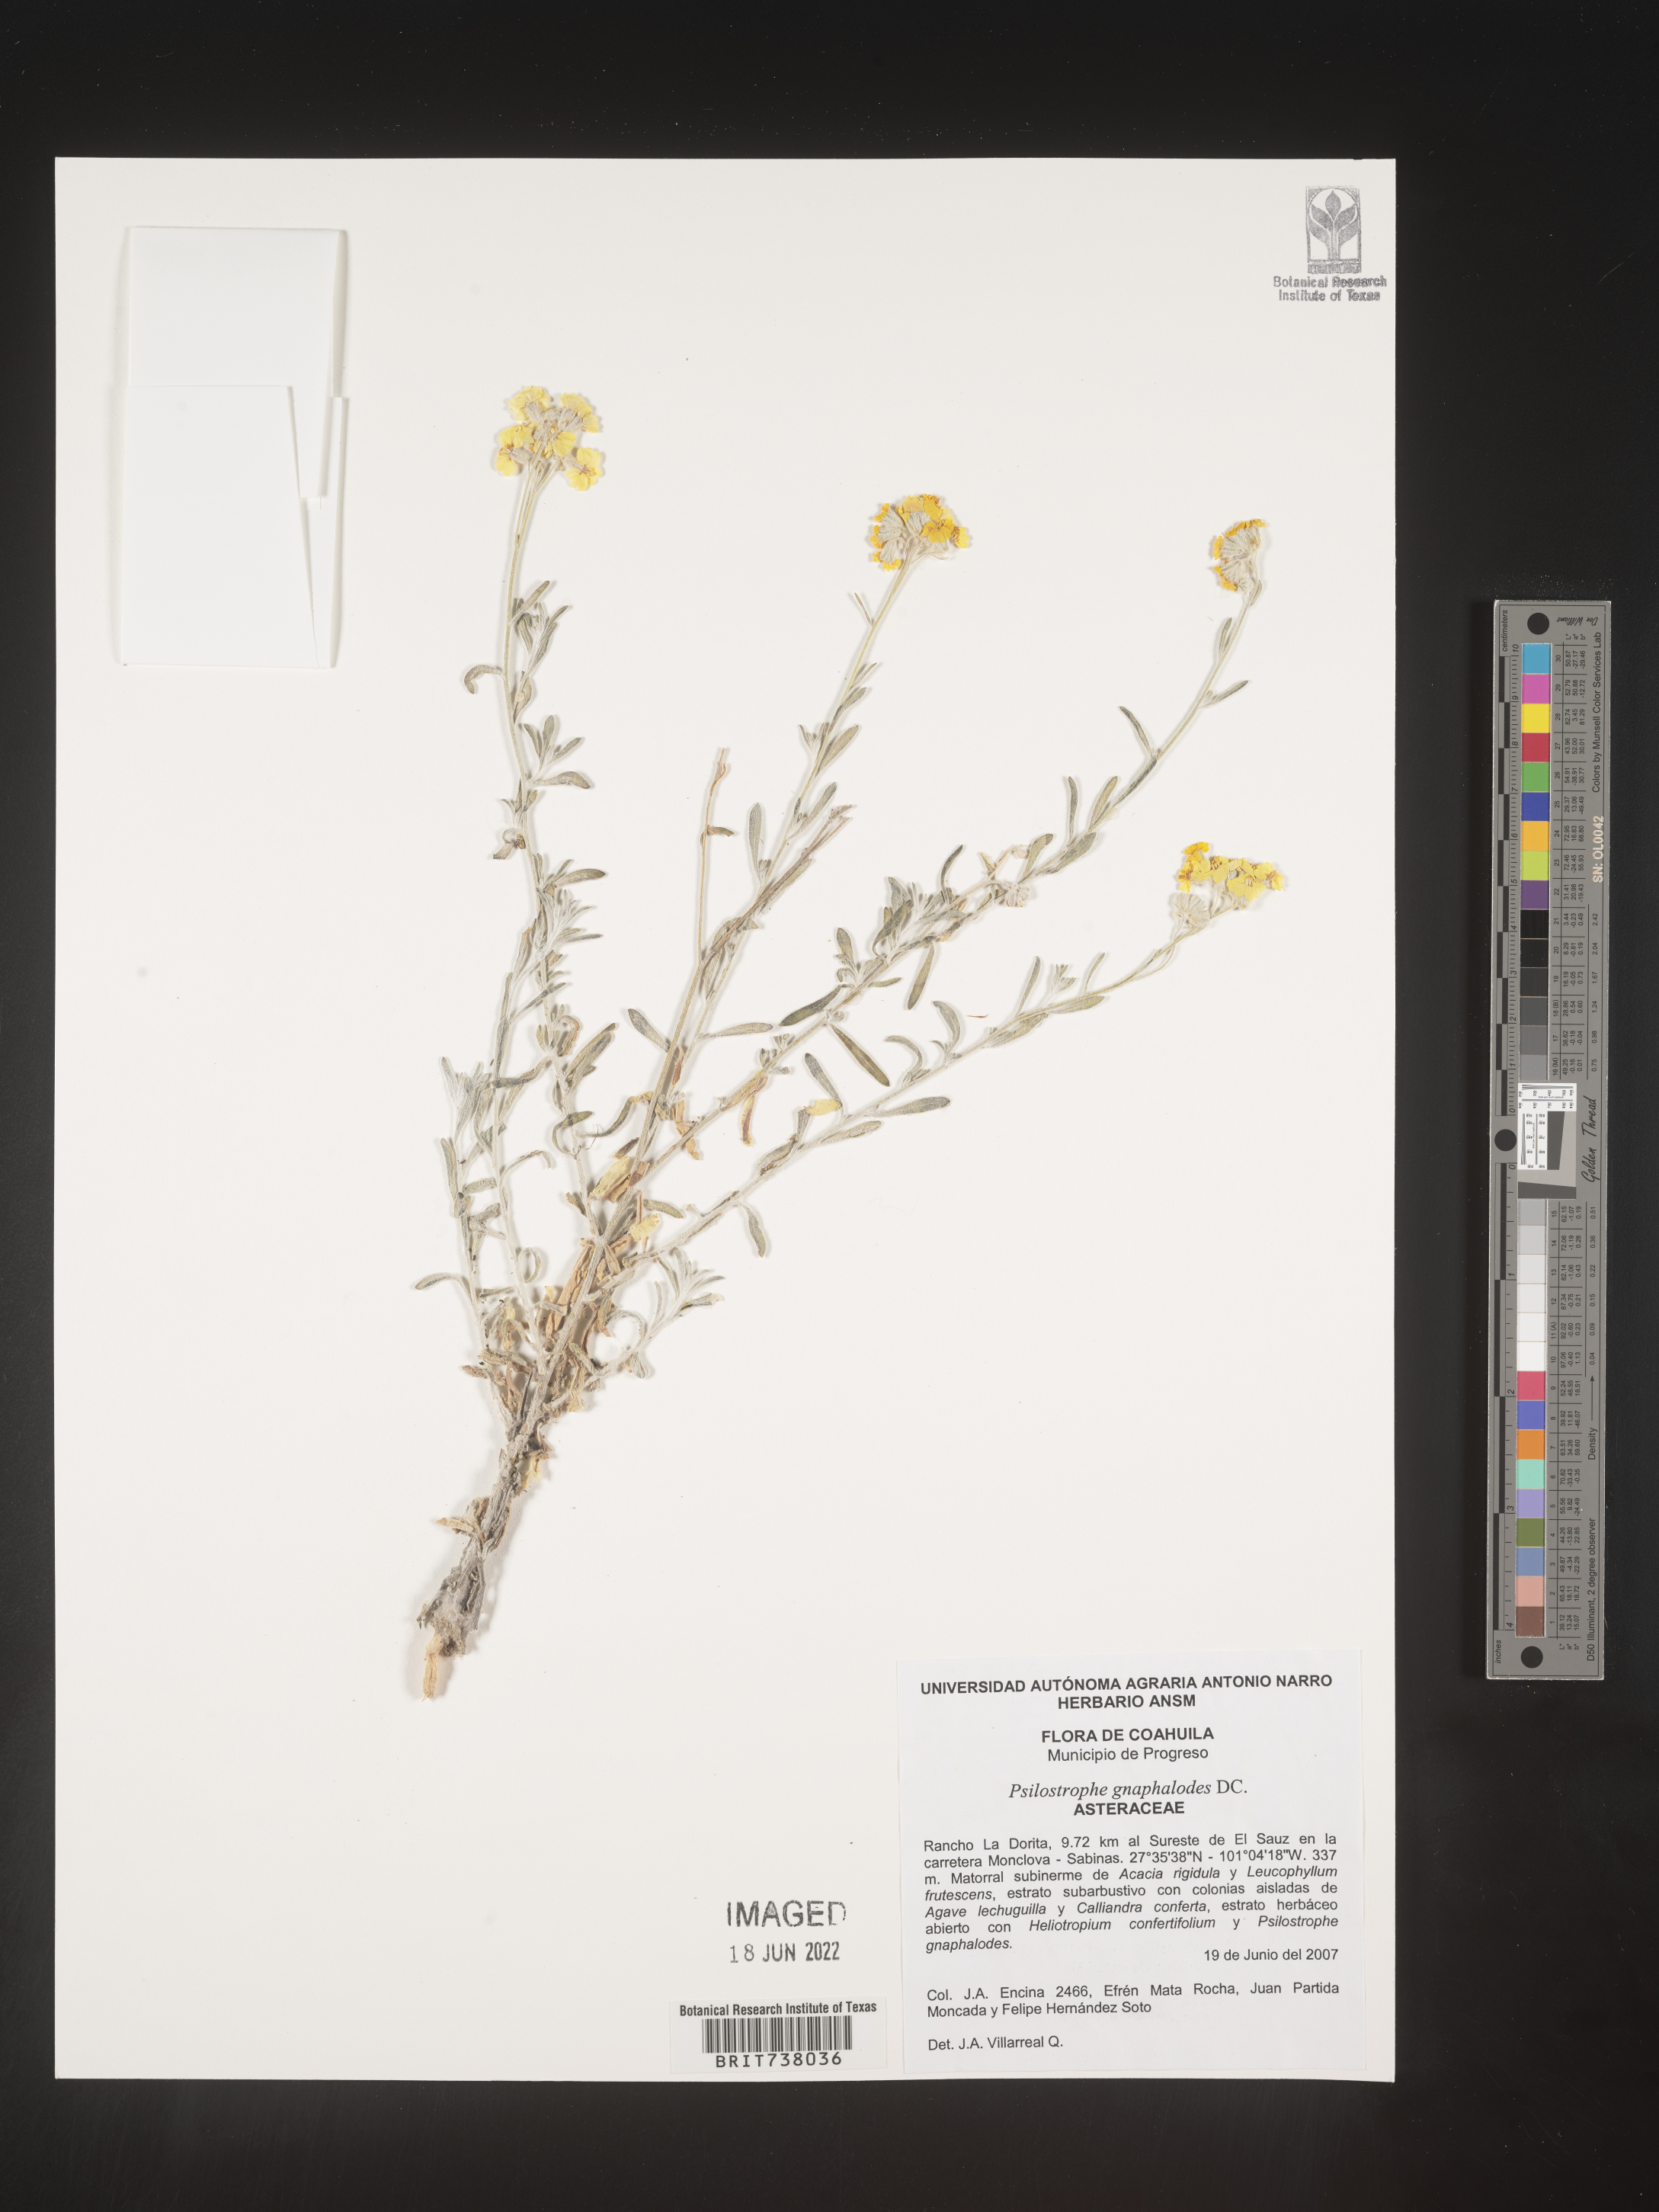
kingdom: Plantae
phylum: Tracheophyta
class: Magnoliopsida
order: Asterales
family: Asteraceae
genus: Psilostrophe
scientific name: Psilostrophe
